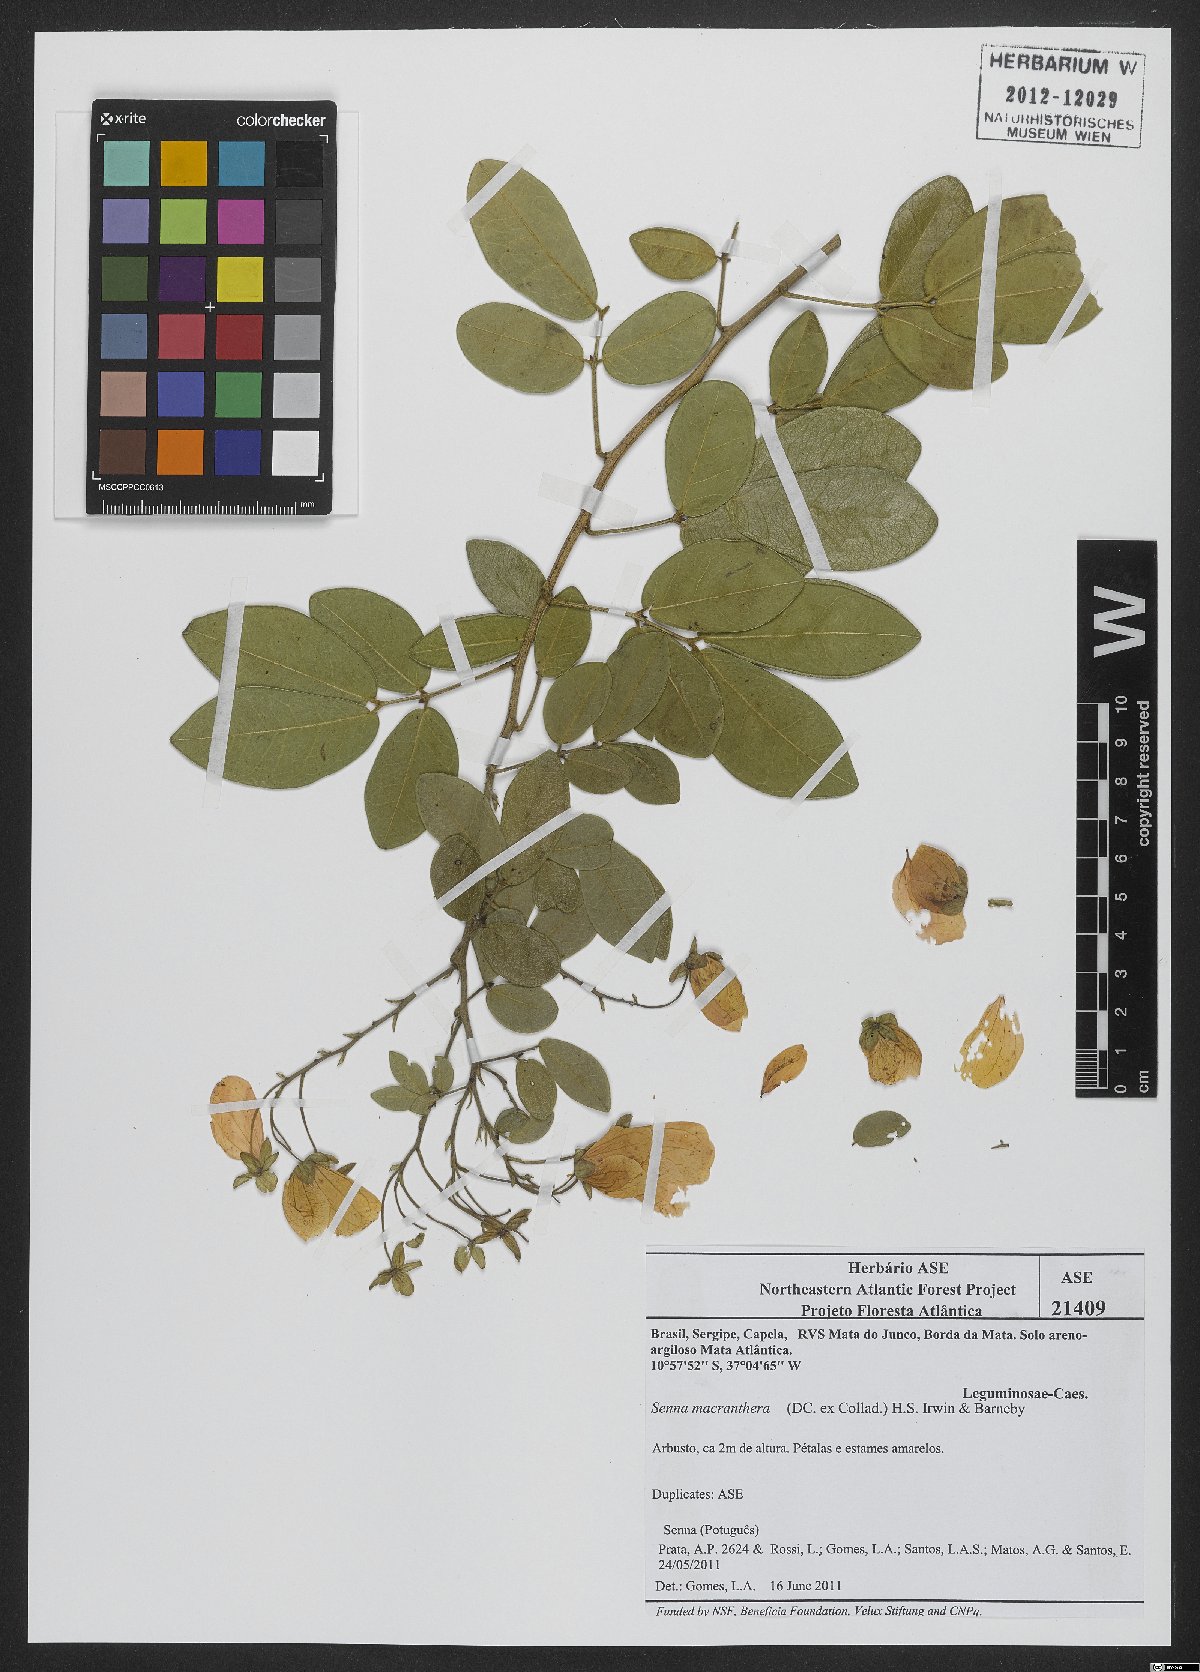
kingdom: Plantae
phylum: Tracheophyta
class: Magnoliopsida
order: Fabales
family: Fabaceae
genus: Senna
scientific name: Senna macranthera
